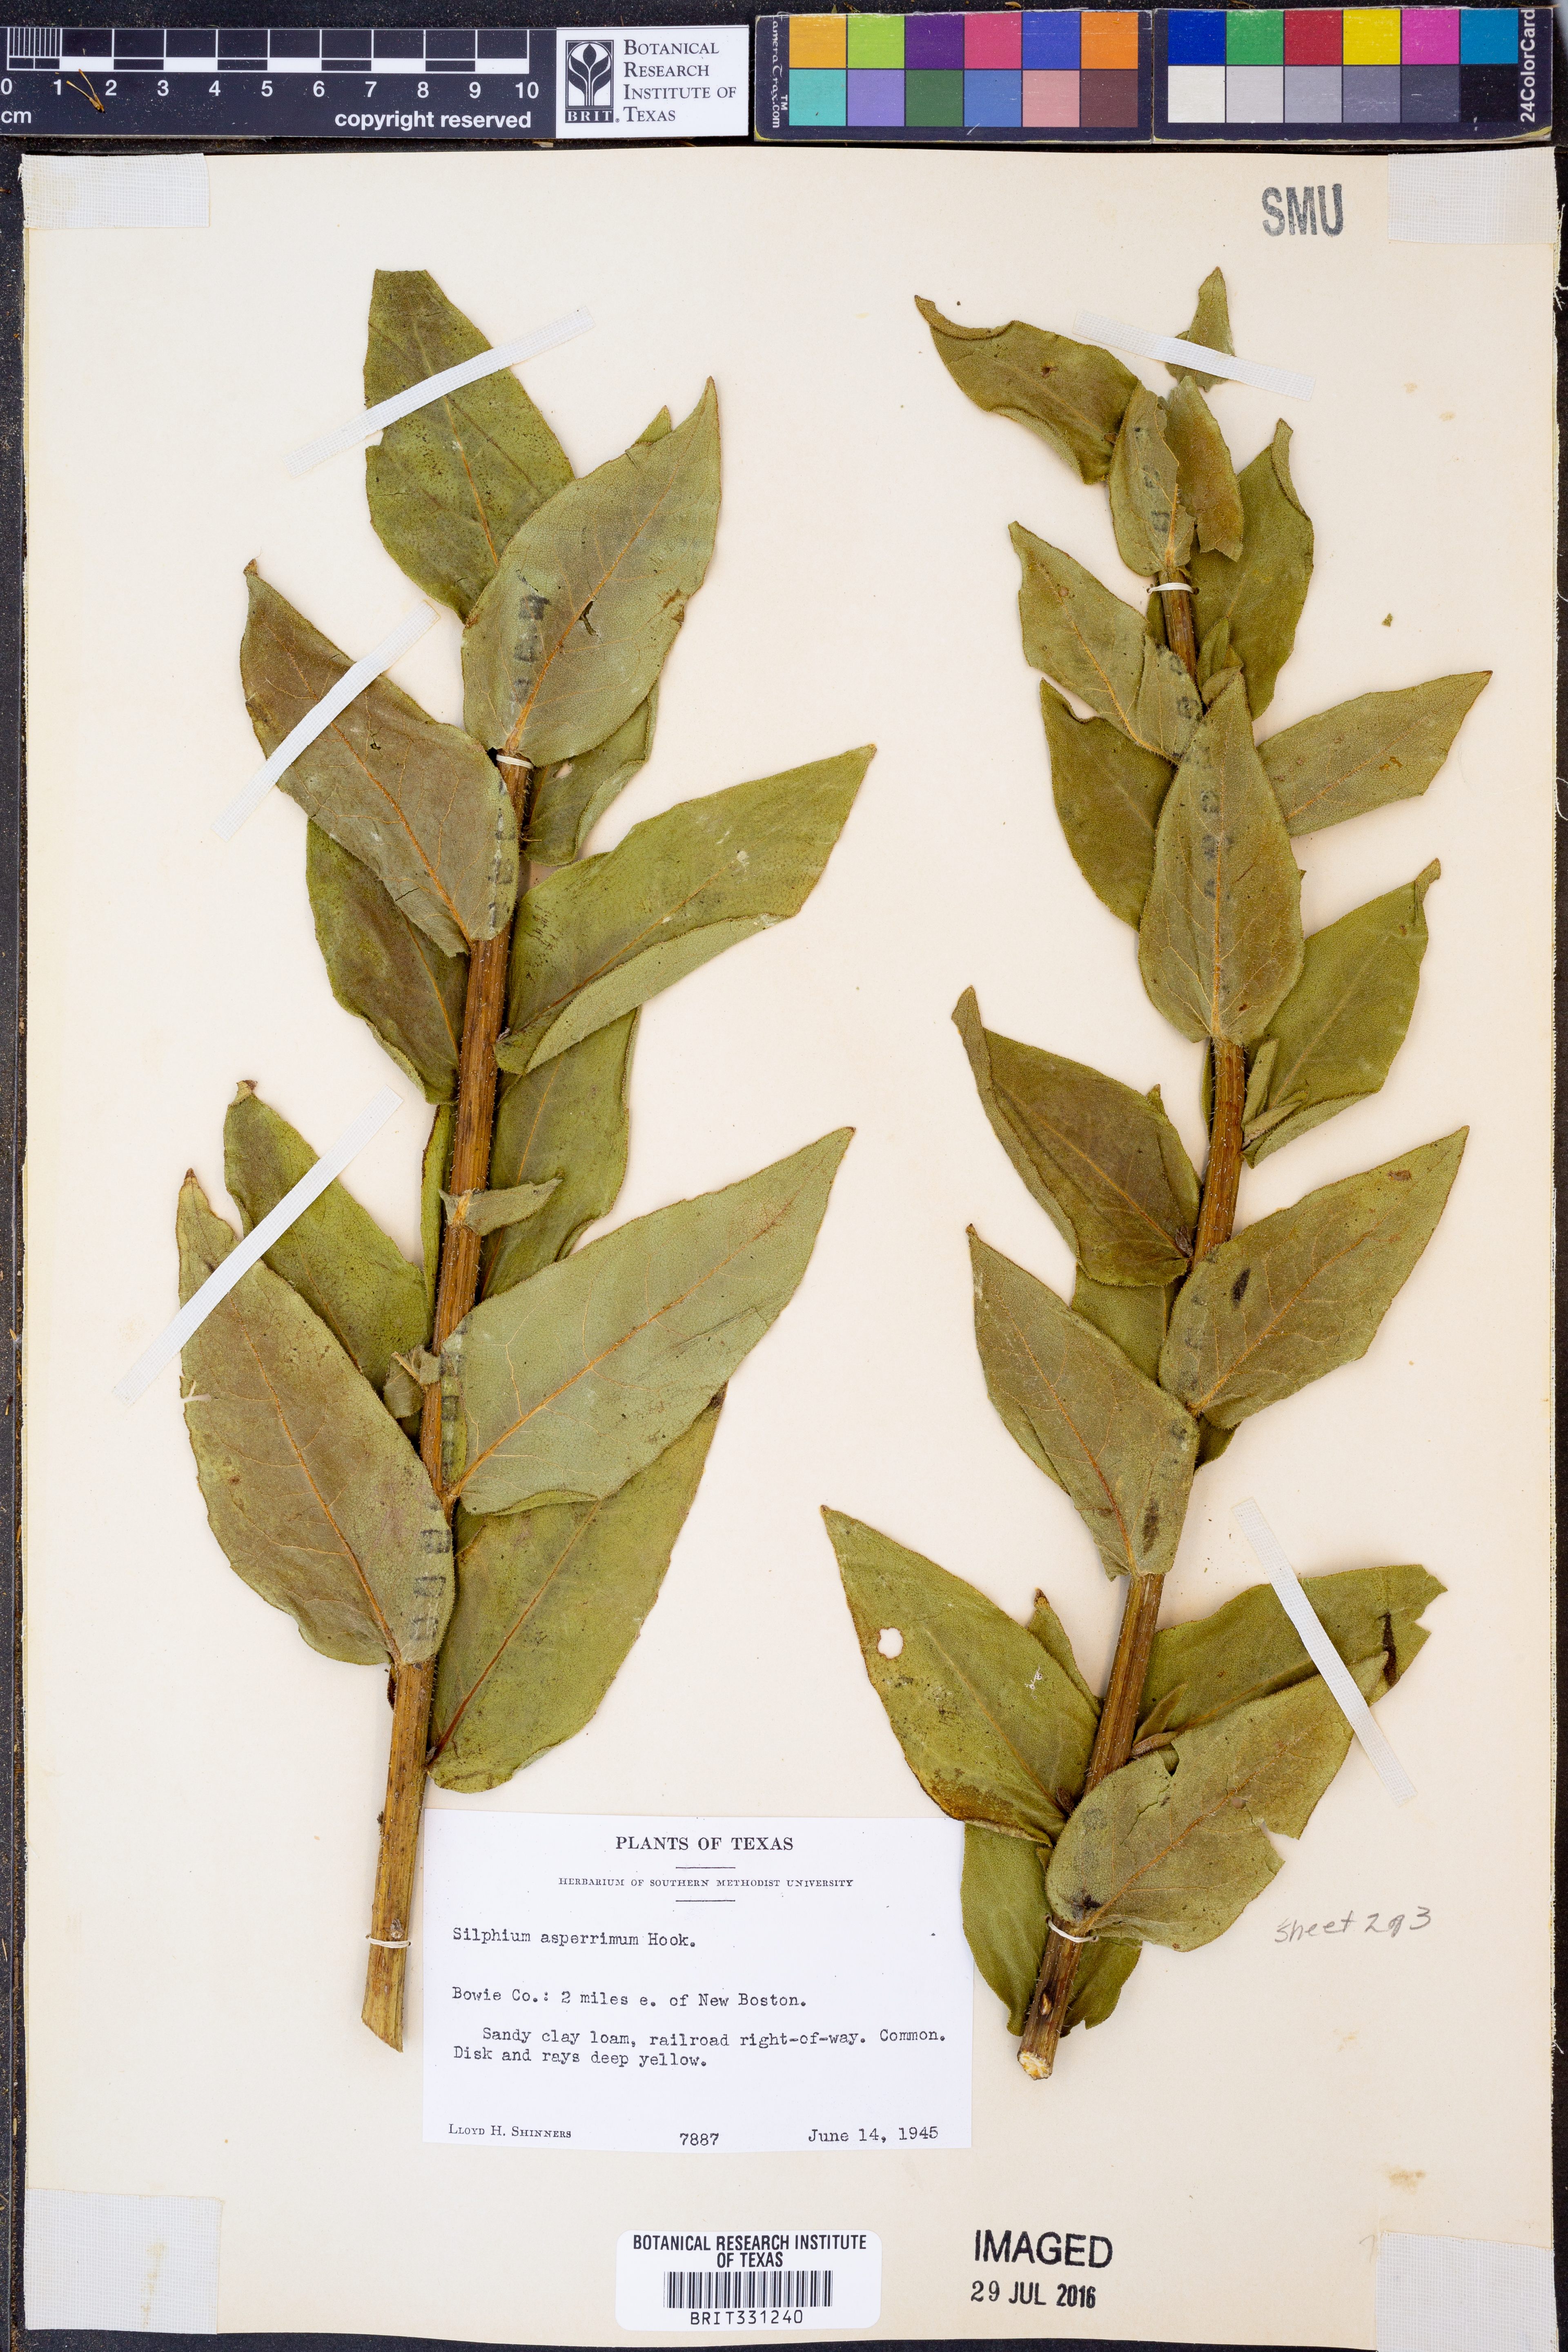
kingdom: Plantae
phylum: Tracheophyta
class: Magnoliopsida
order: Asterales
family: Asteraceae
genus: Silphium
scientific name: Silphium asperrimum
